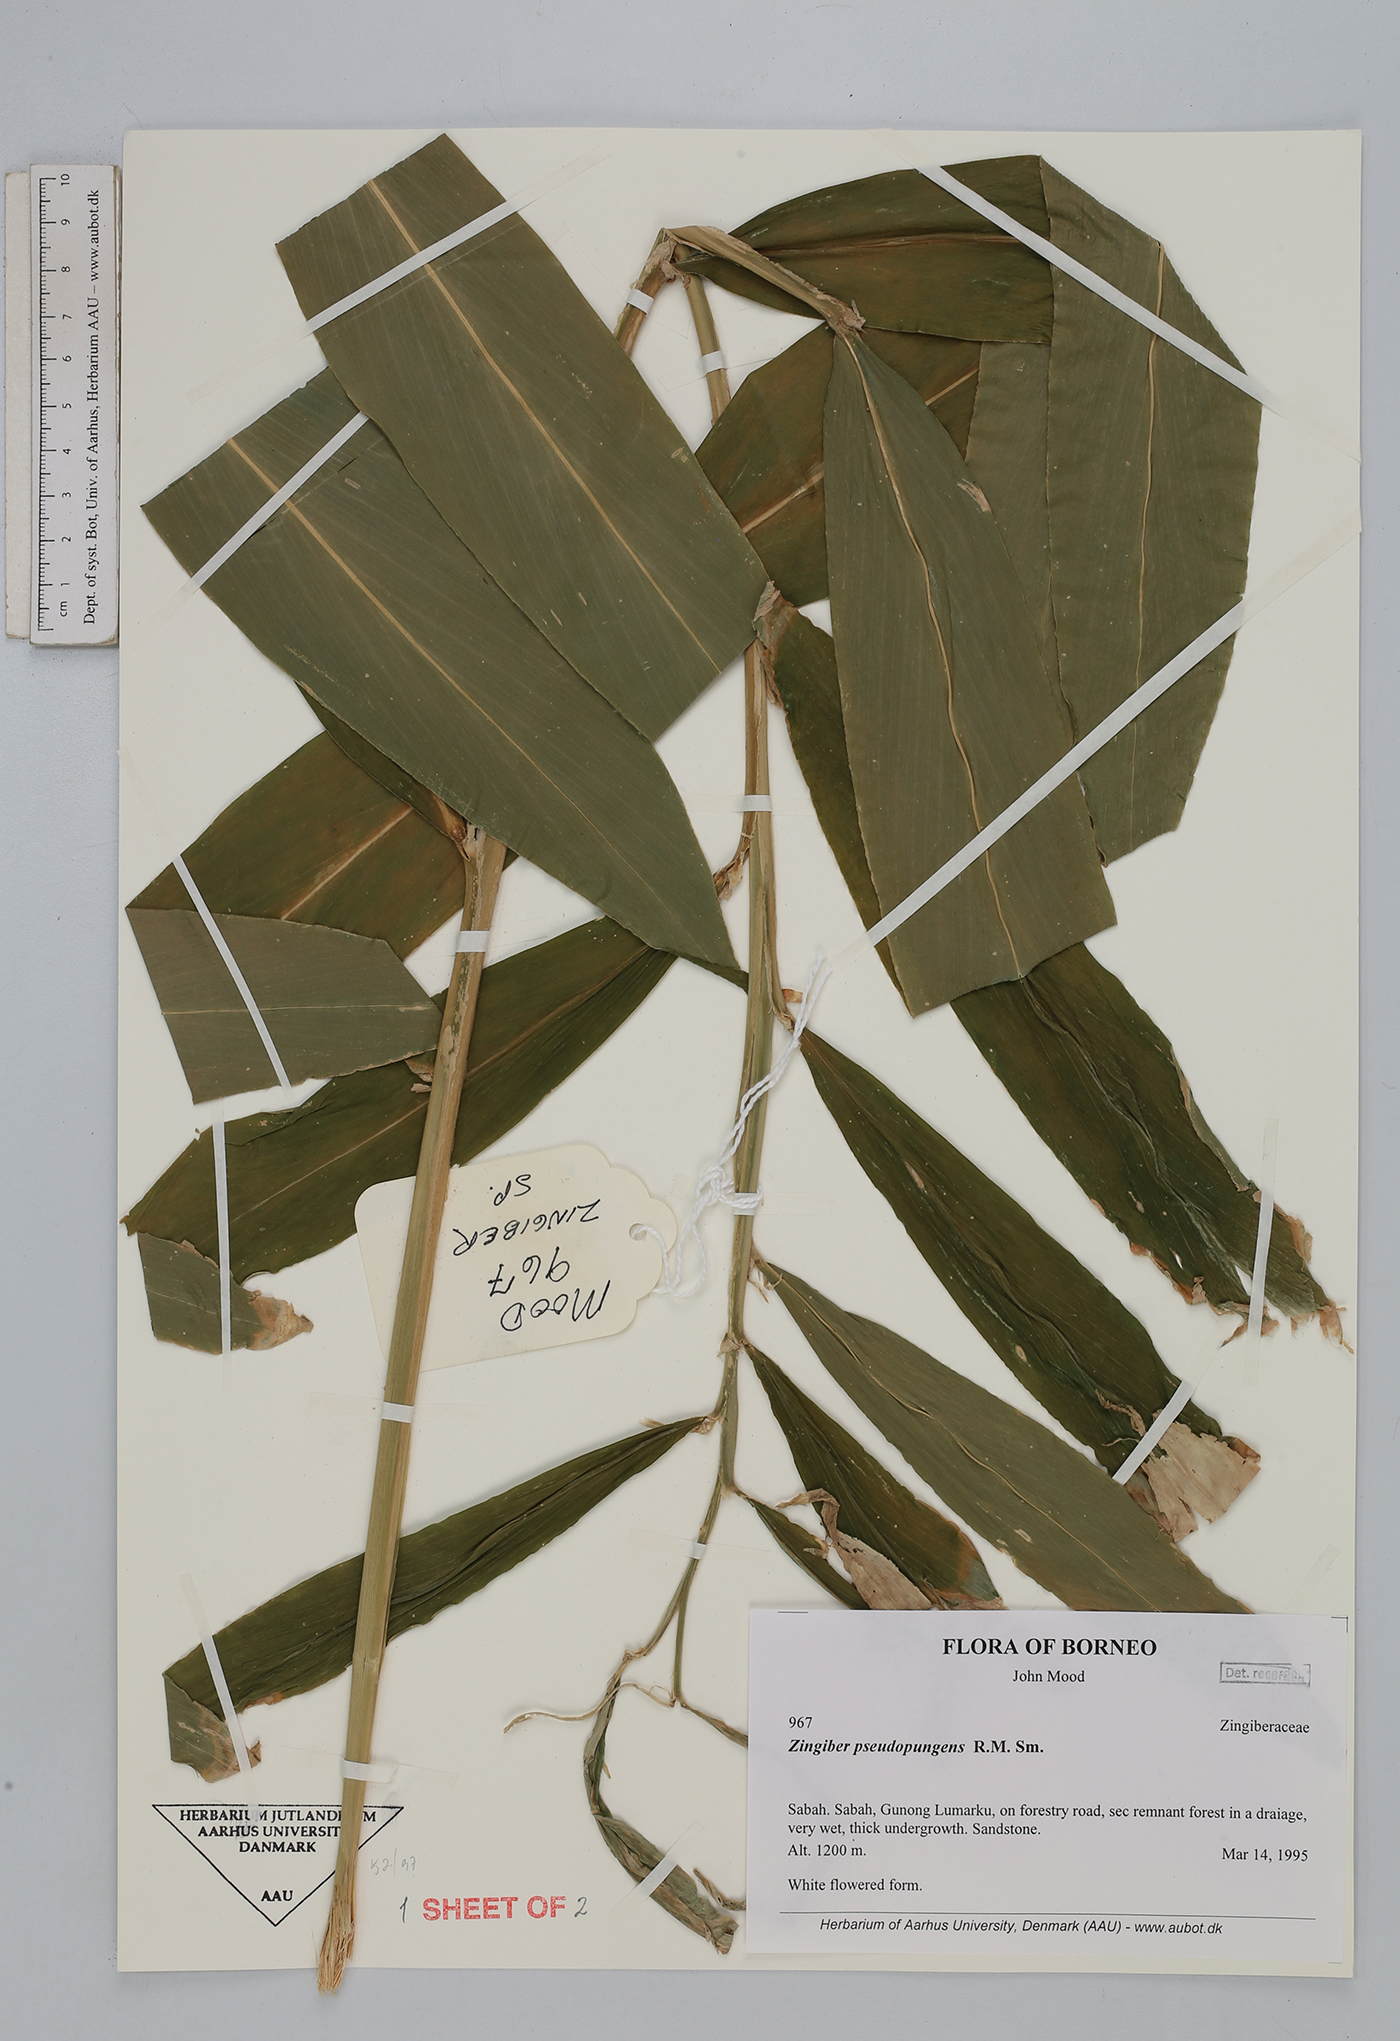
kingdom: Plantae
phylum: Tracheophyta
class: Liliopsida
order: Zingiberales
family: Zingiberaceae
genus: Zingiber
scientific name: Zingiber pseudopungens
